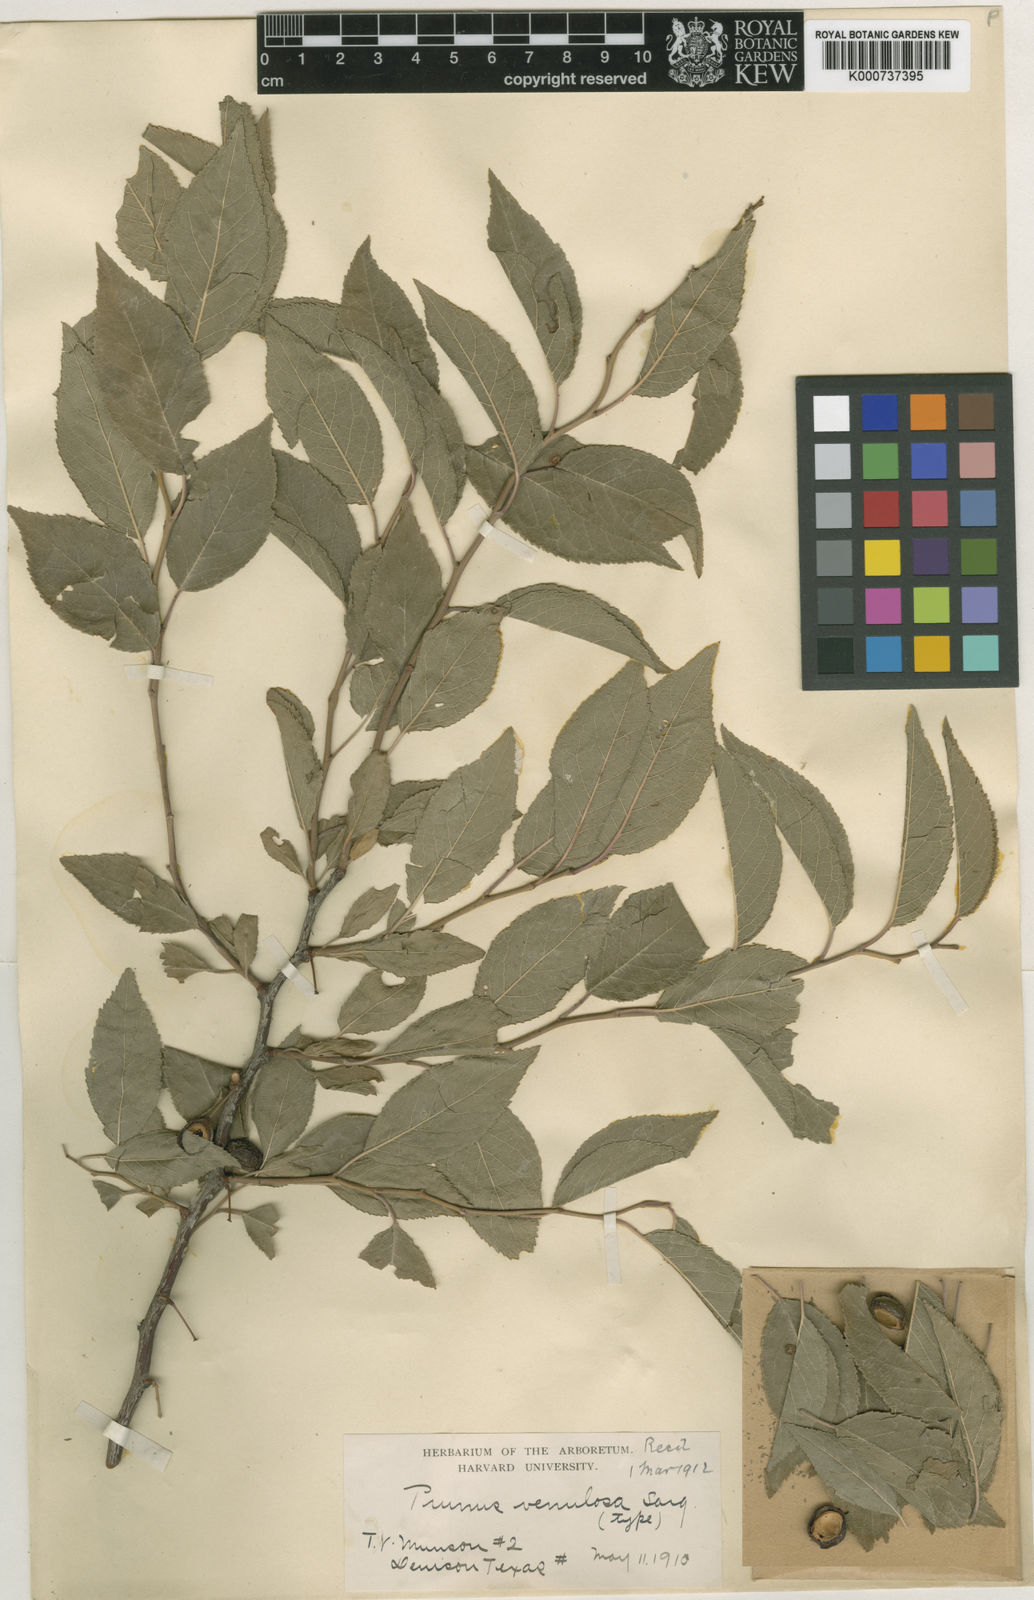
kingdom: Plantae
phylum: Tracheophyta
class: Magnoliopsida
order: Rosales
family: Rosaceae
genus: Prunus
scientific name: Prunus venulosa
